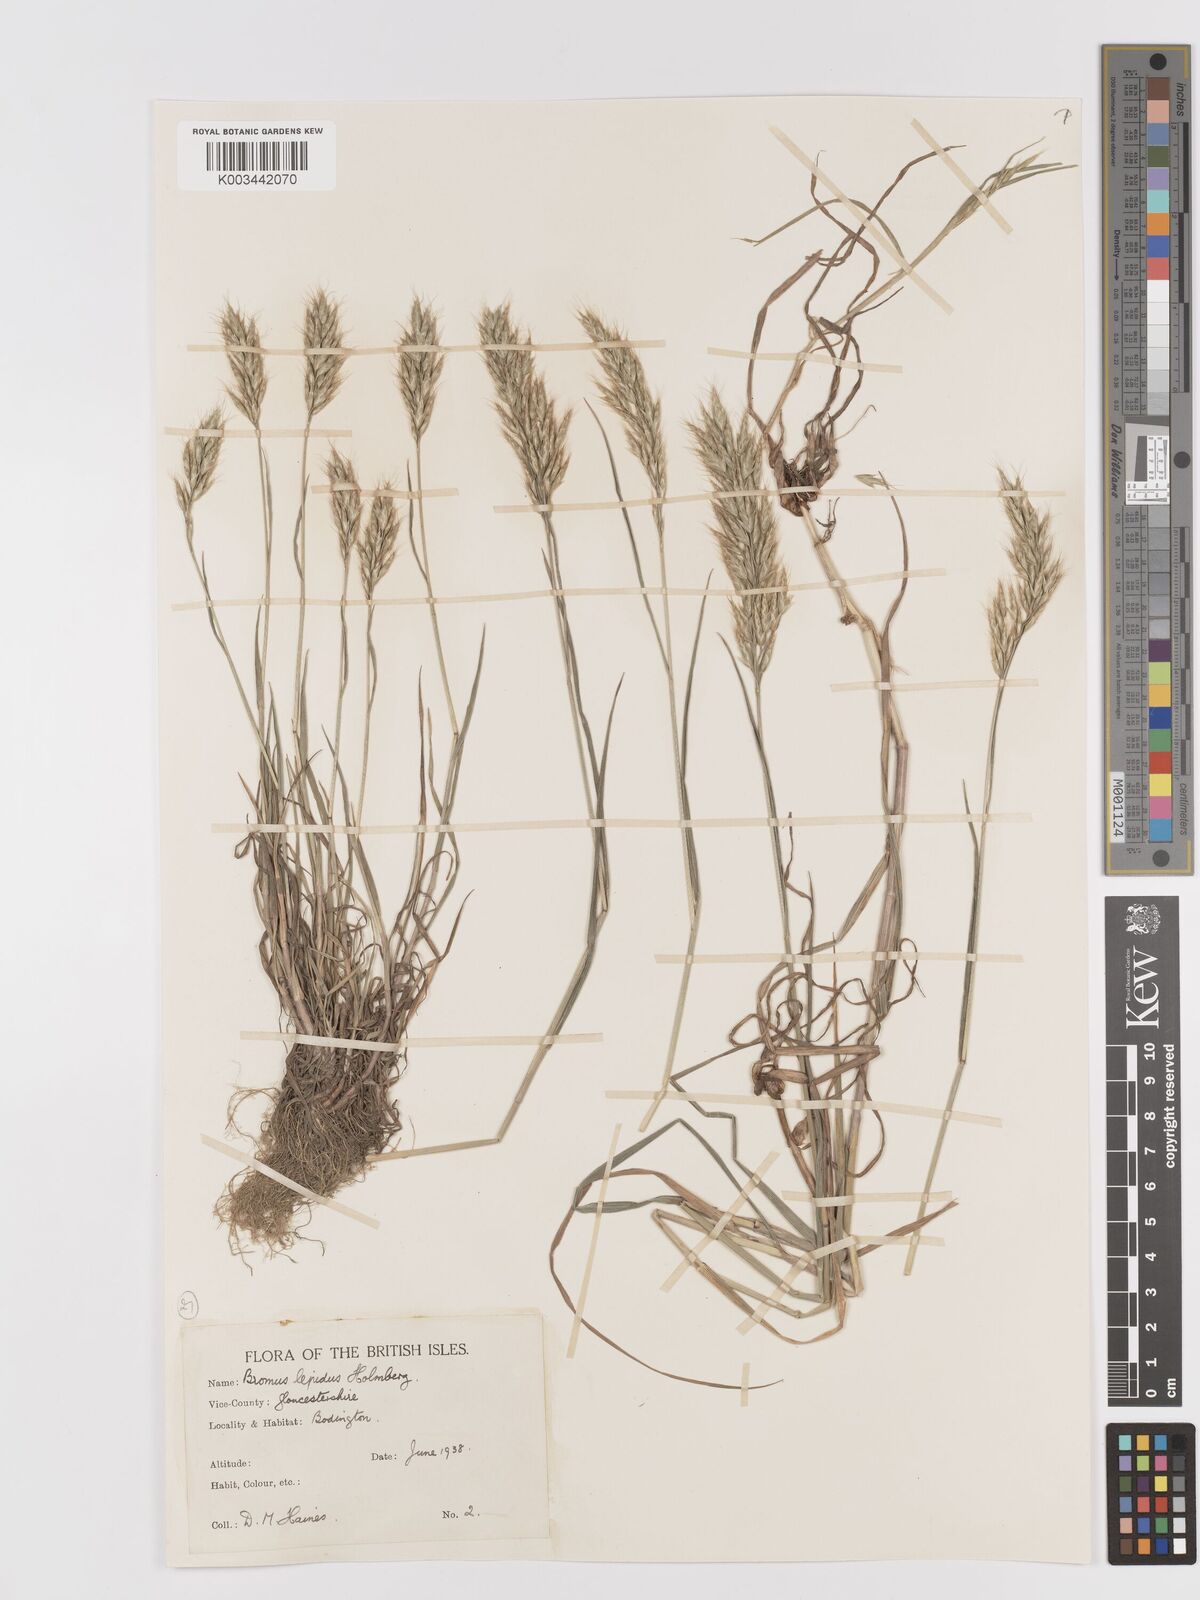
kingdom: Plantae
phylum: Tracheophyta
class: Liliopsida
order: Poales
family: Poaceae
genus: Bromus
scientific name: Bromus lepidus
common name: Slender soft-brome
